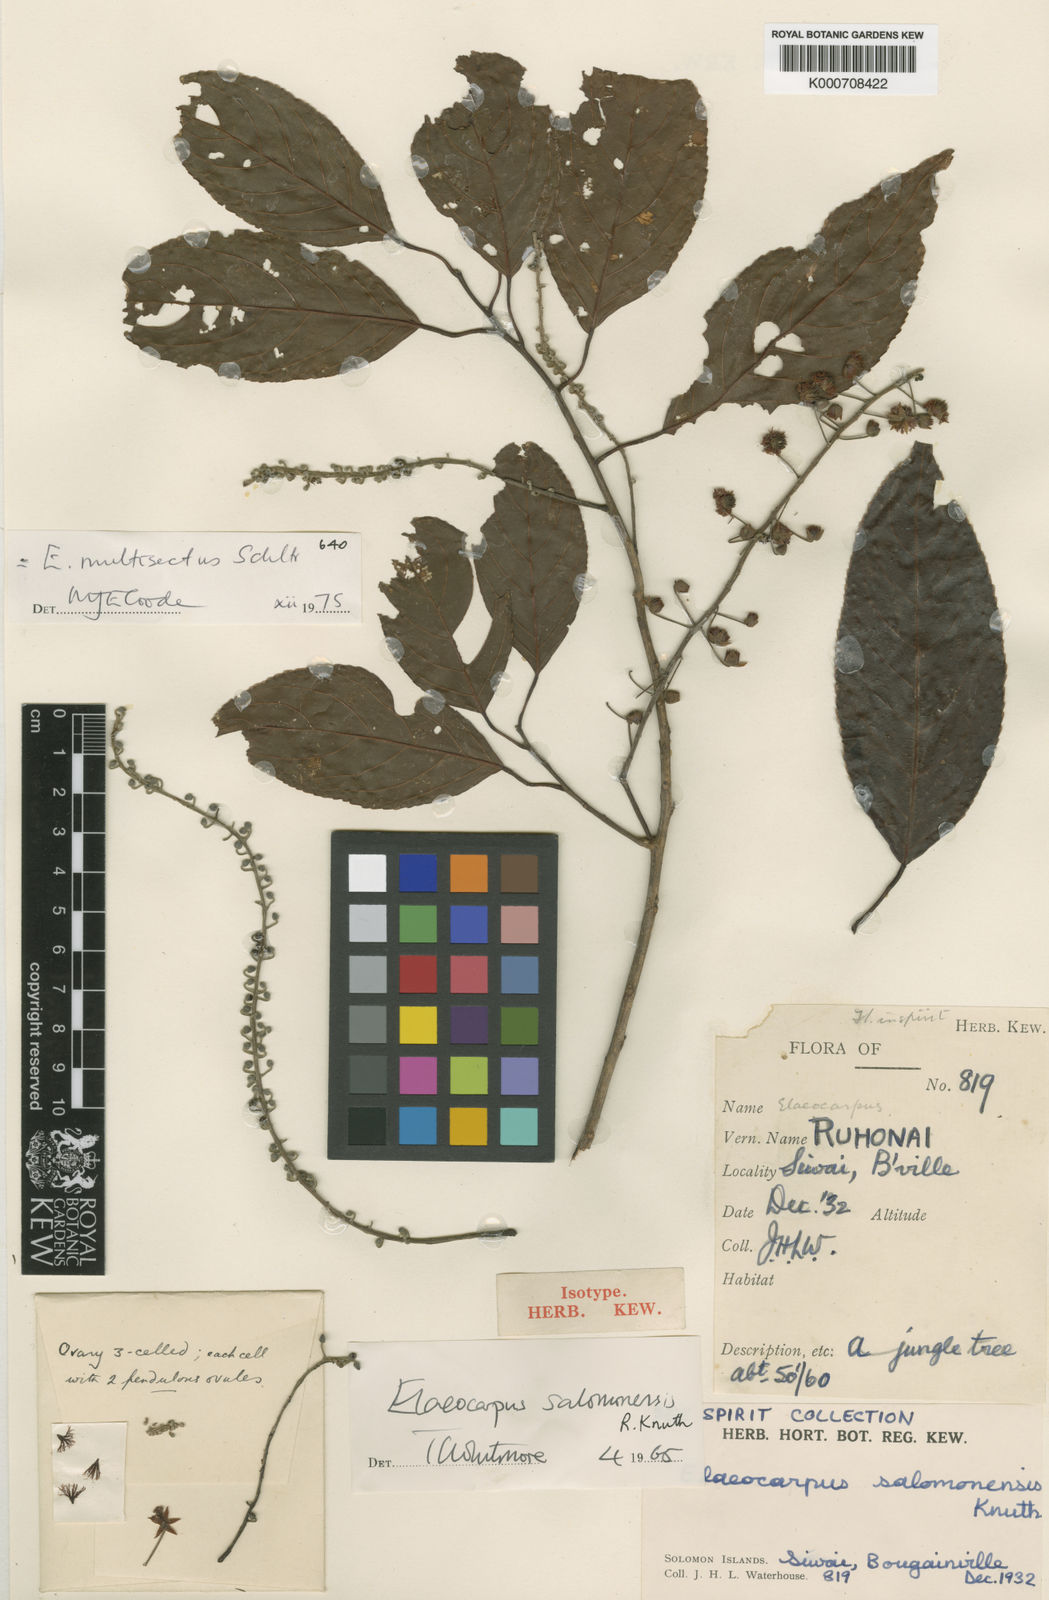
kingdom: Plantae
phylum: Tracheophyta
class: Magnoliopsida
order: Oxalidales
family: Elaeocarpaceae
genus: Elaeocarpus
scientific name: Elaeocarpus multisectus
